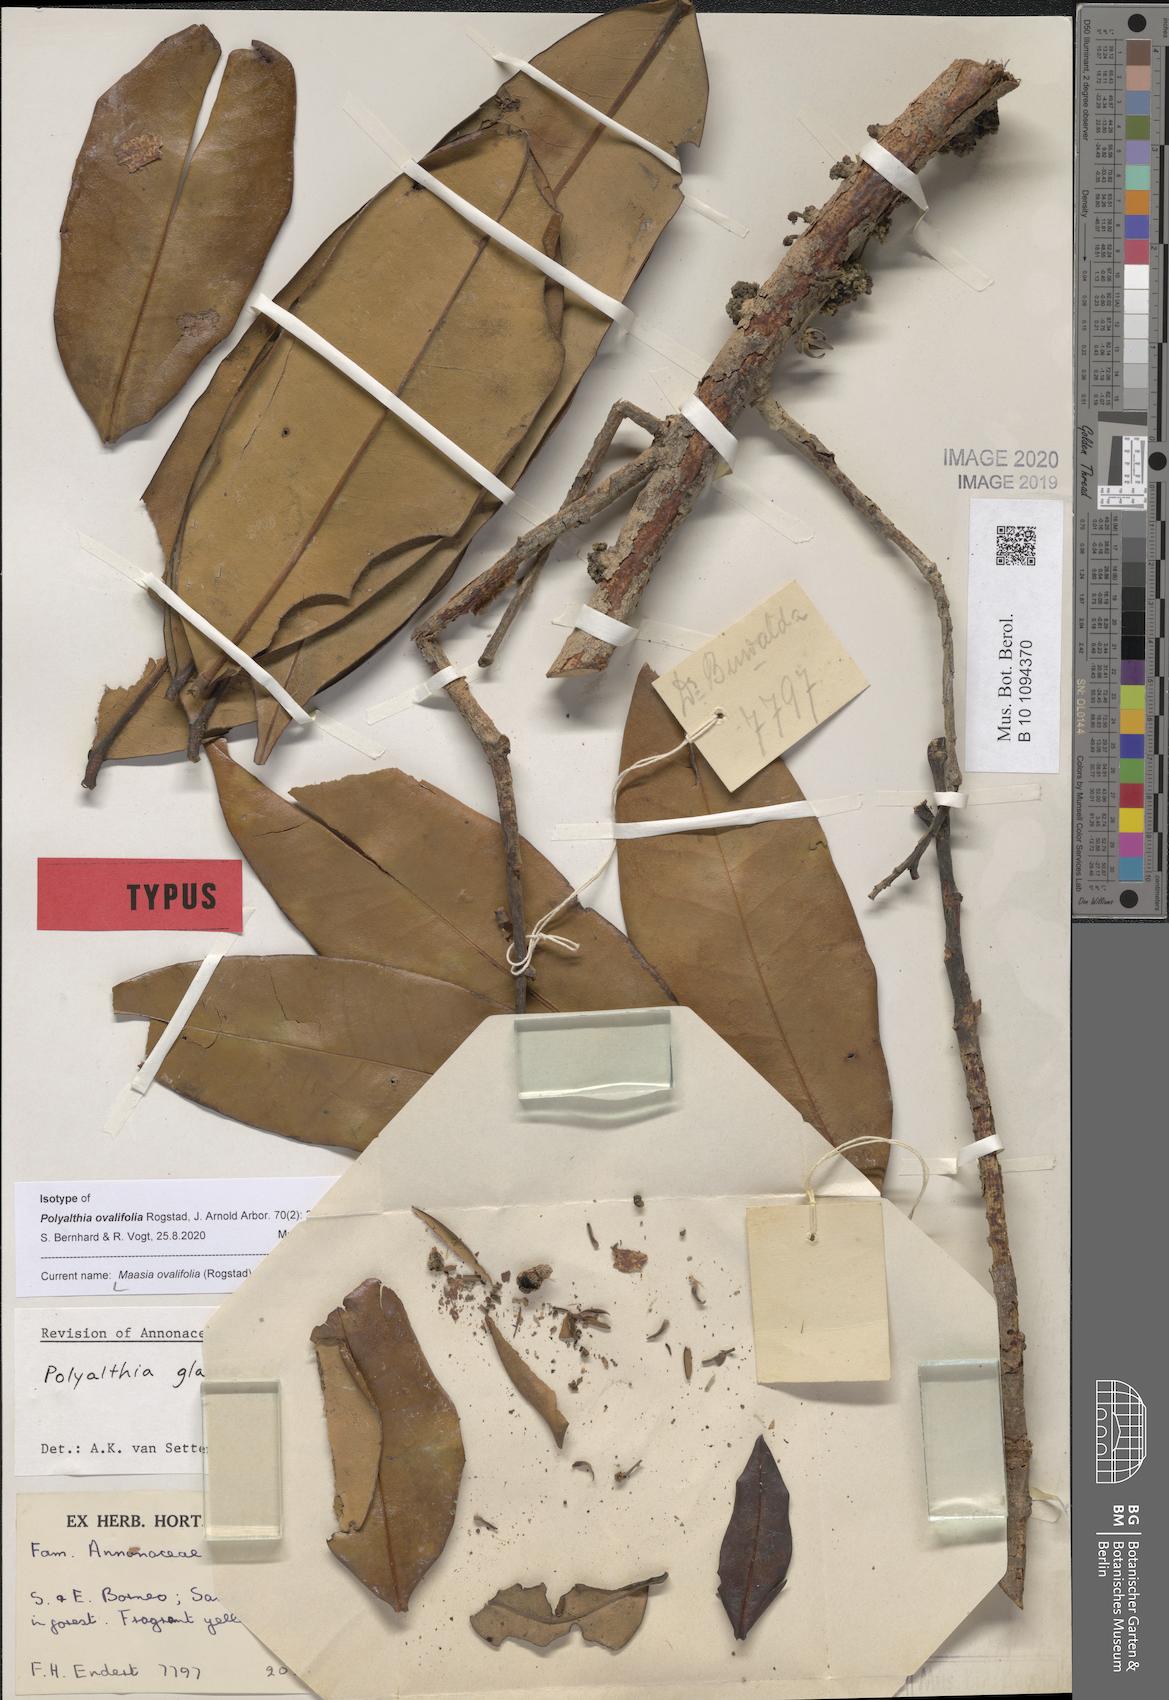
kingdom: Plantae
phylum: Tracheophyta
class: Magnoliopsida
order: Magnoliales
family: Annonaceae
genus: Maasia
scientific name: Maasia ovalifolia
